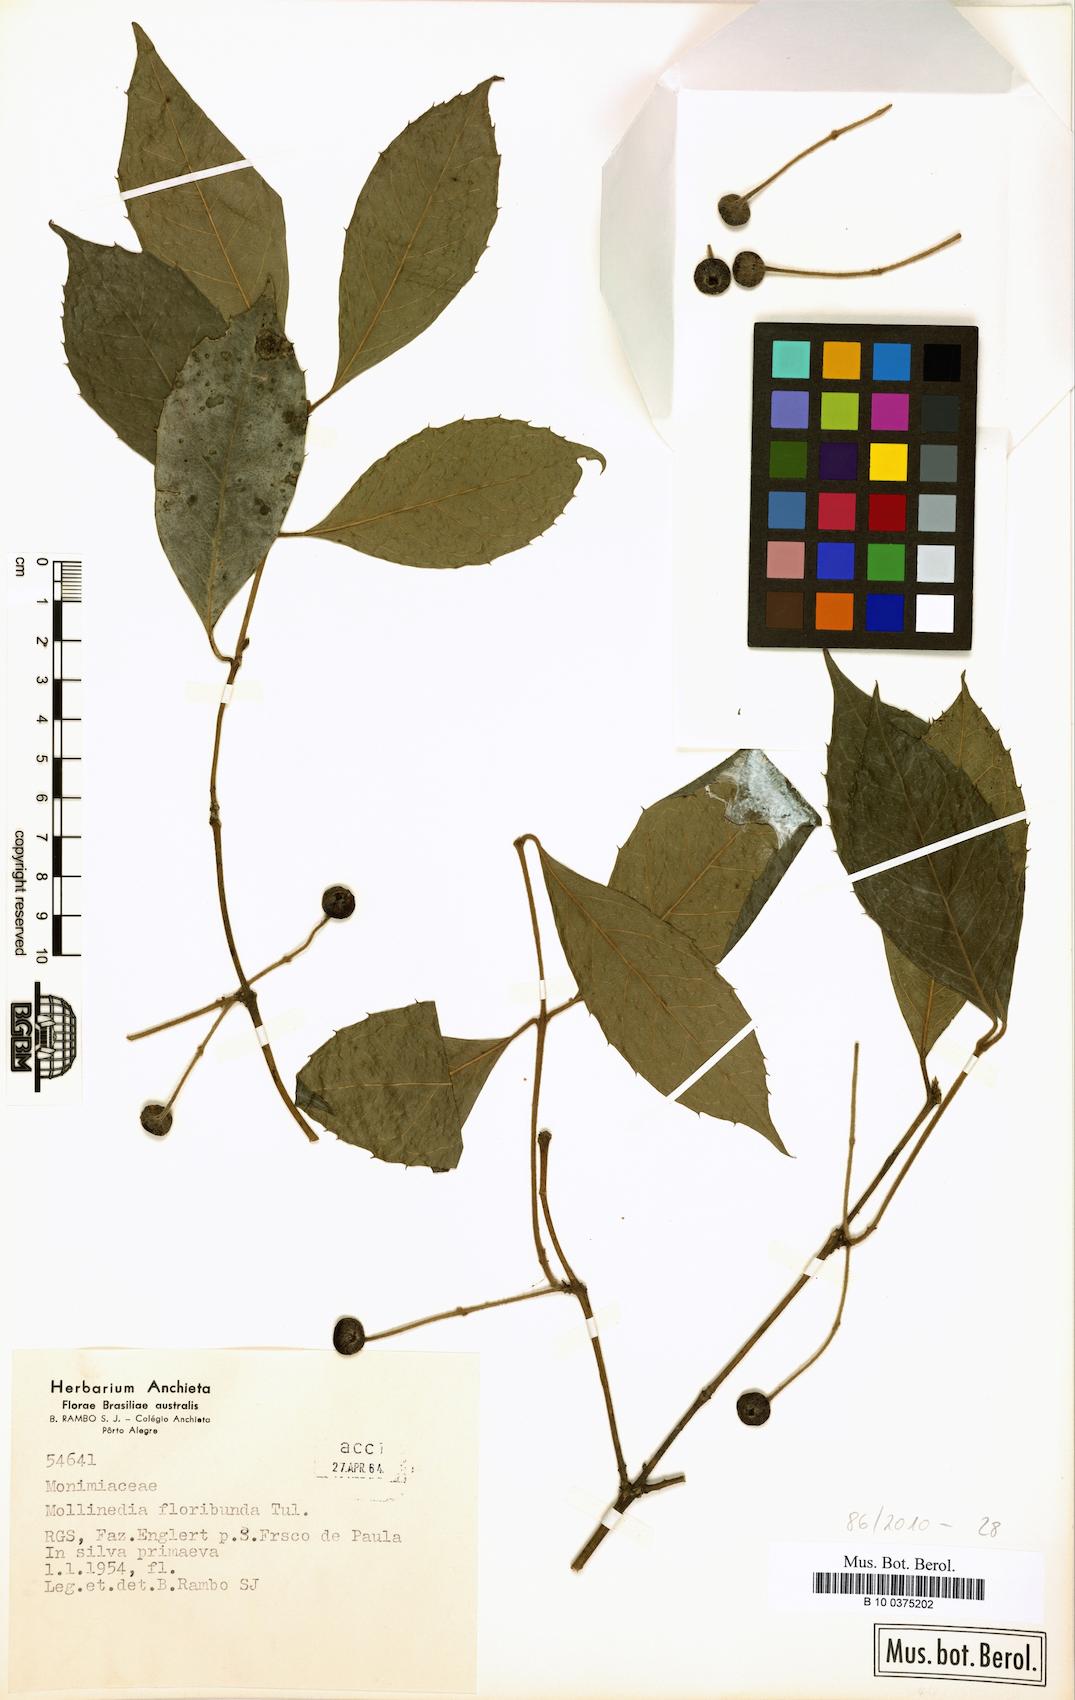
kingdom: Plantae
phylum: Tracheophyta
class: Magnoliopsida
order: Laurales
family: Monimiaceae
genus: Mollinedia
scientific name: Mollinedia umbellata
